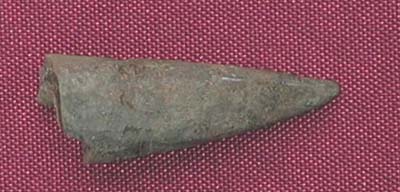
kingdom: Animalia
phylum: Mollusca
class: Cephalopoda
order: Belemnitida
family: Megateuthididae
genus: Acrocoelites
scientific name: Acrocoelites
